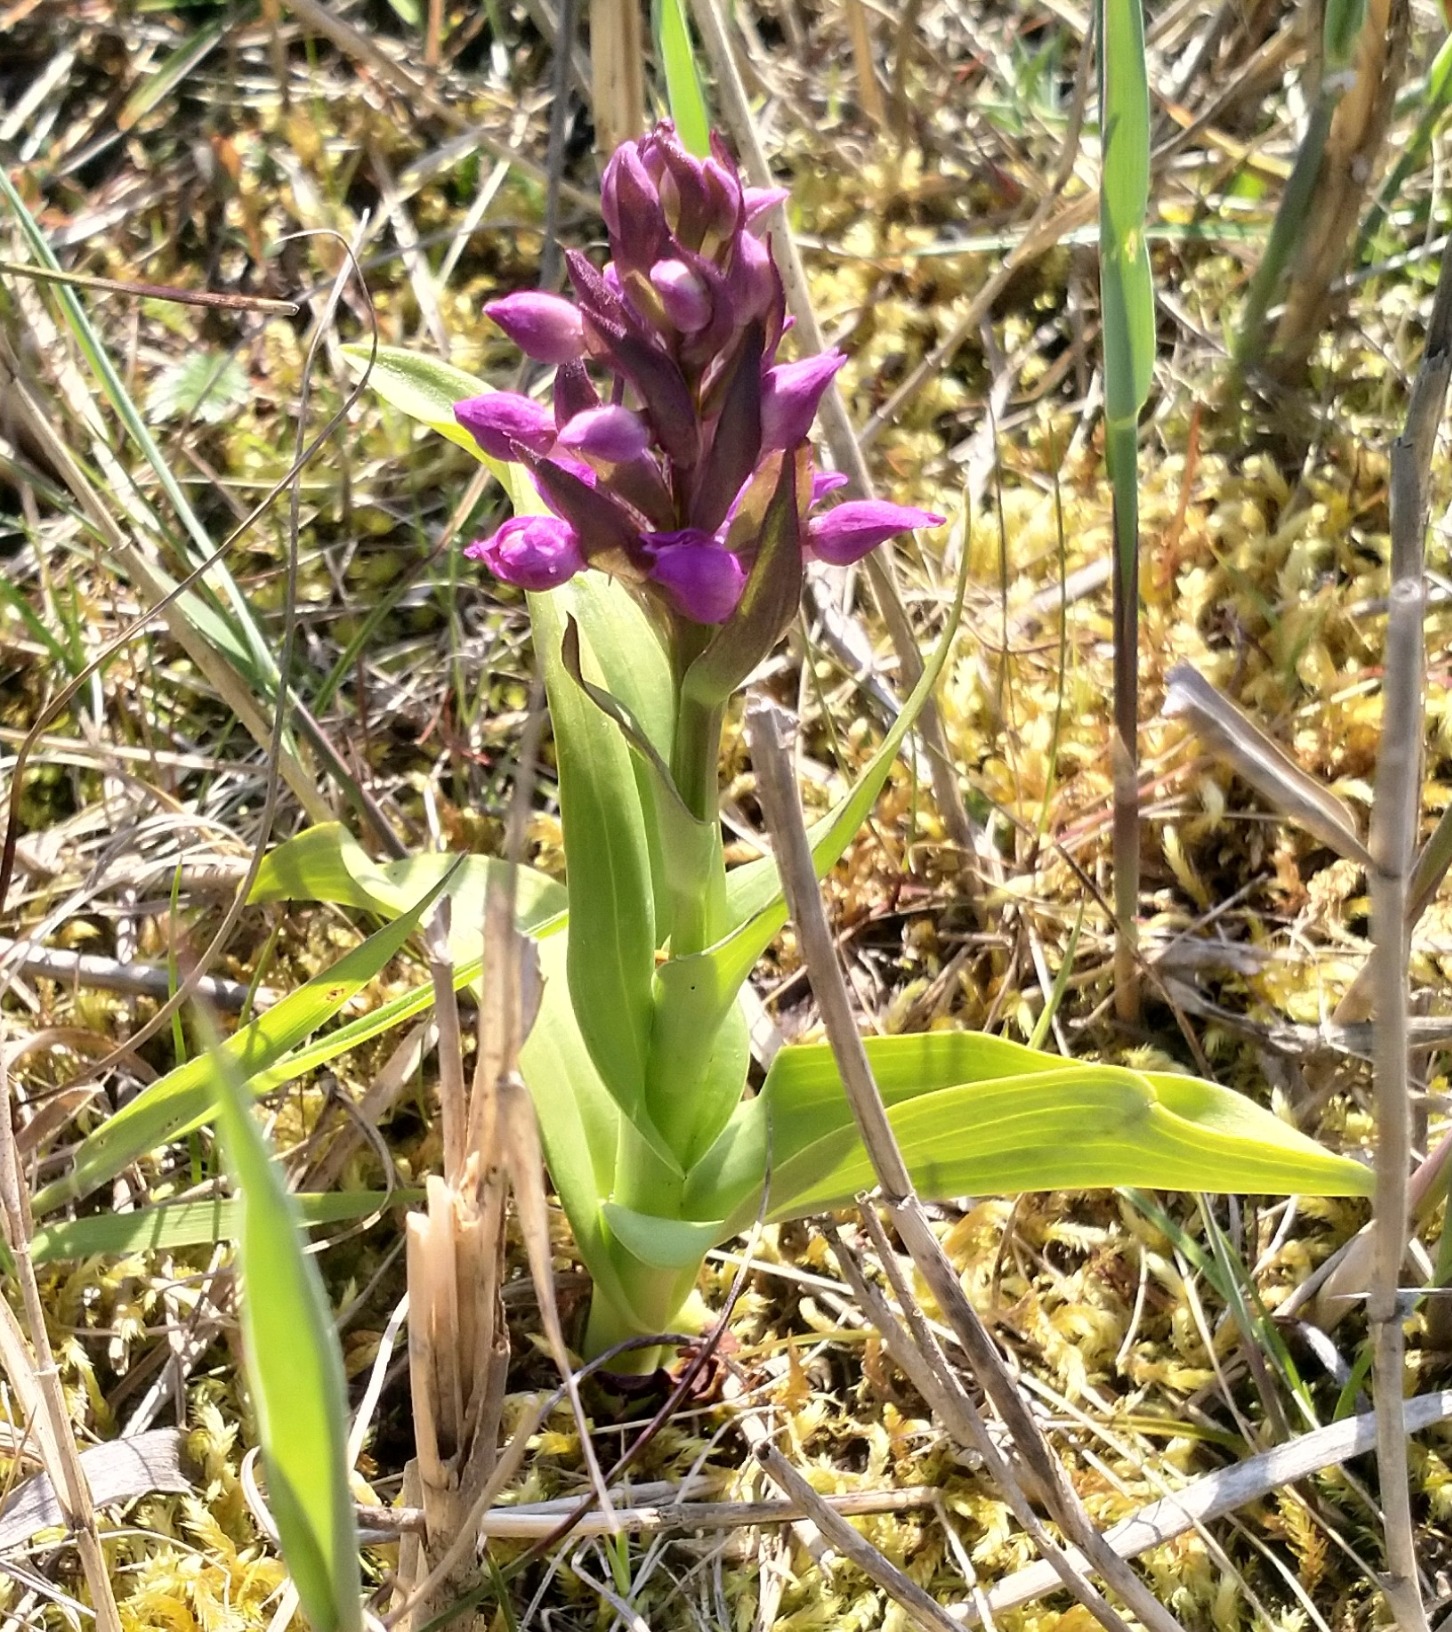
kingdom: Plantae
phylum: Tracheophyta
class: Liliopsida
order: Asparagales
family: Orchidaceae
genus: Dactylorhiza
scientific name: Dactylorhiza majalis
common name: Maj-gøgeurt
